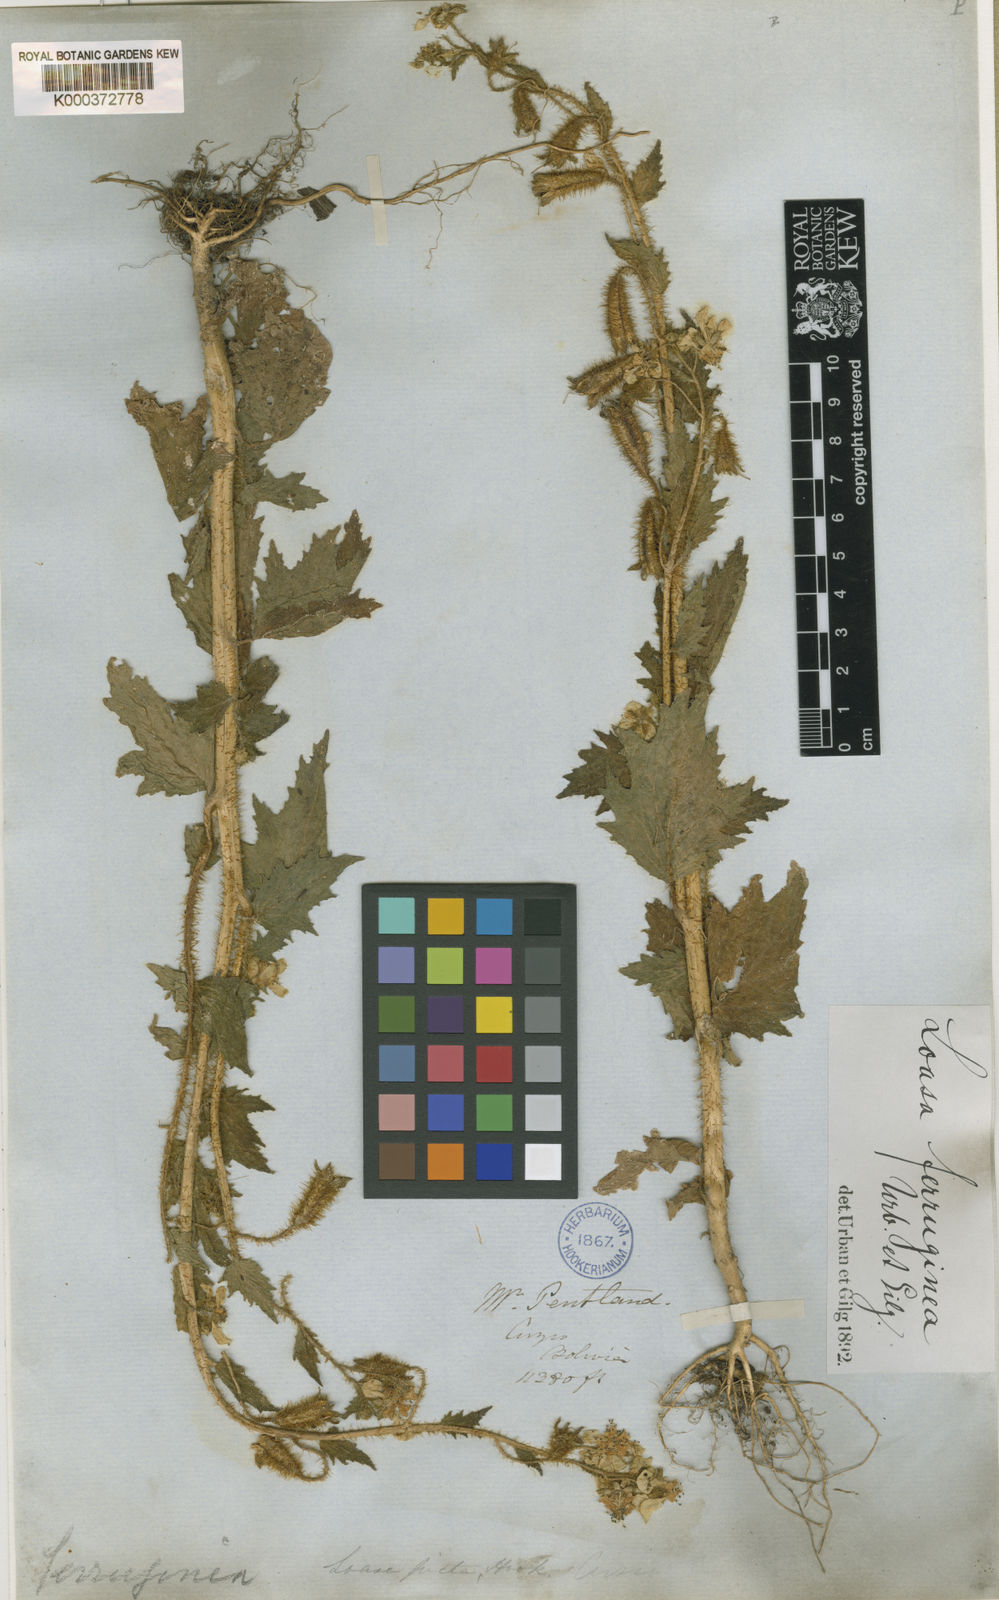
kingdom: Plantae
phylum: Tracheophyta
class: Magnoliopsida
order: Cornales
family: Loasaceae
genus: Nasa
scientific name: Nasa ferruginea
